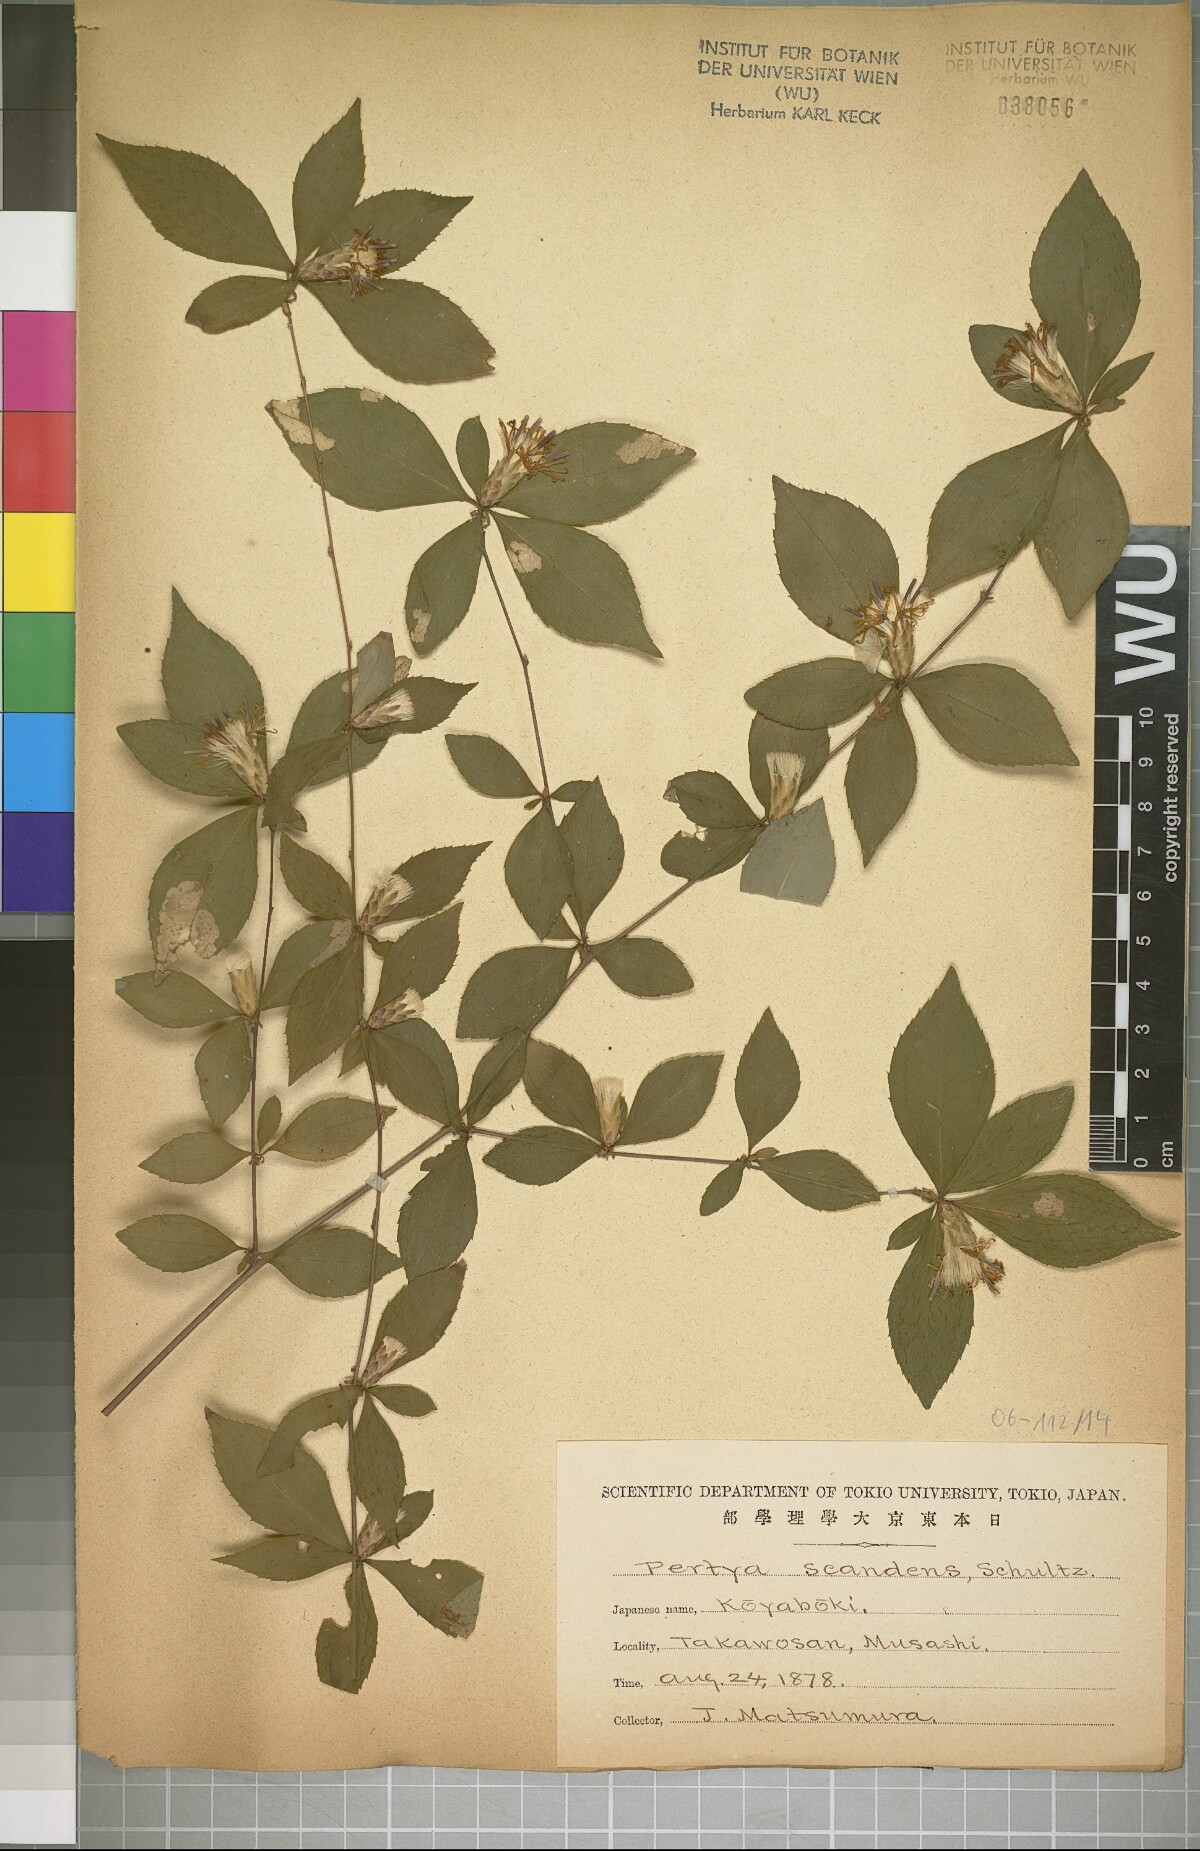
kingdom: Plantae
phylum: Tracheophyta
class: Magnoliopsida
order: Asterales
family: Asteraceae
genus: Pertya
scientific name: Pertya glabrescens
